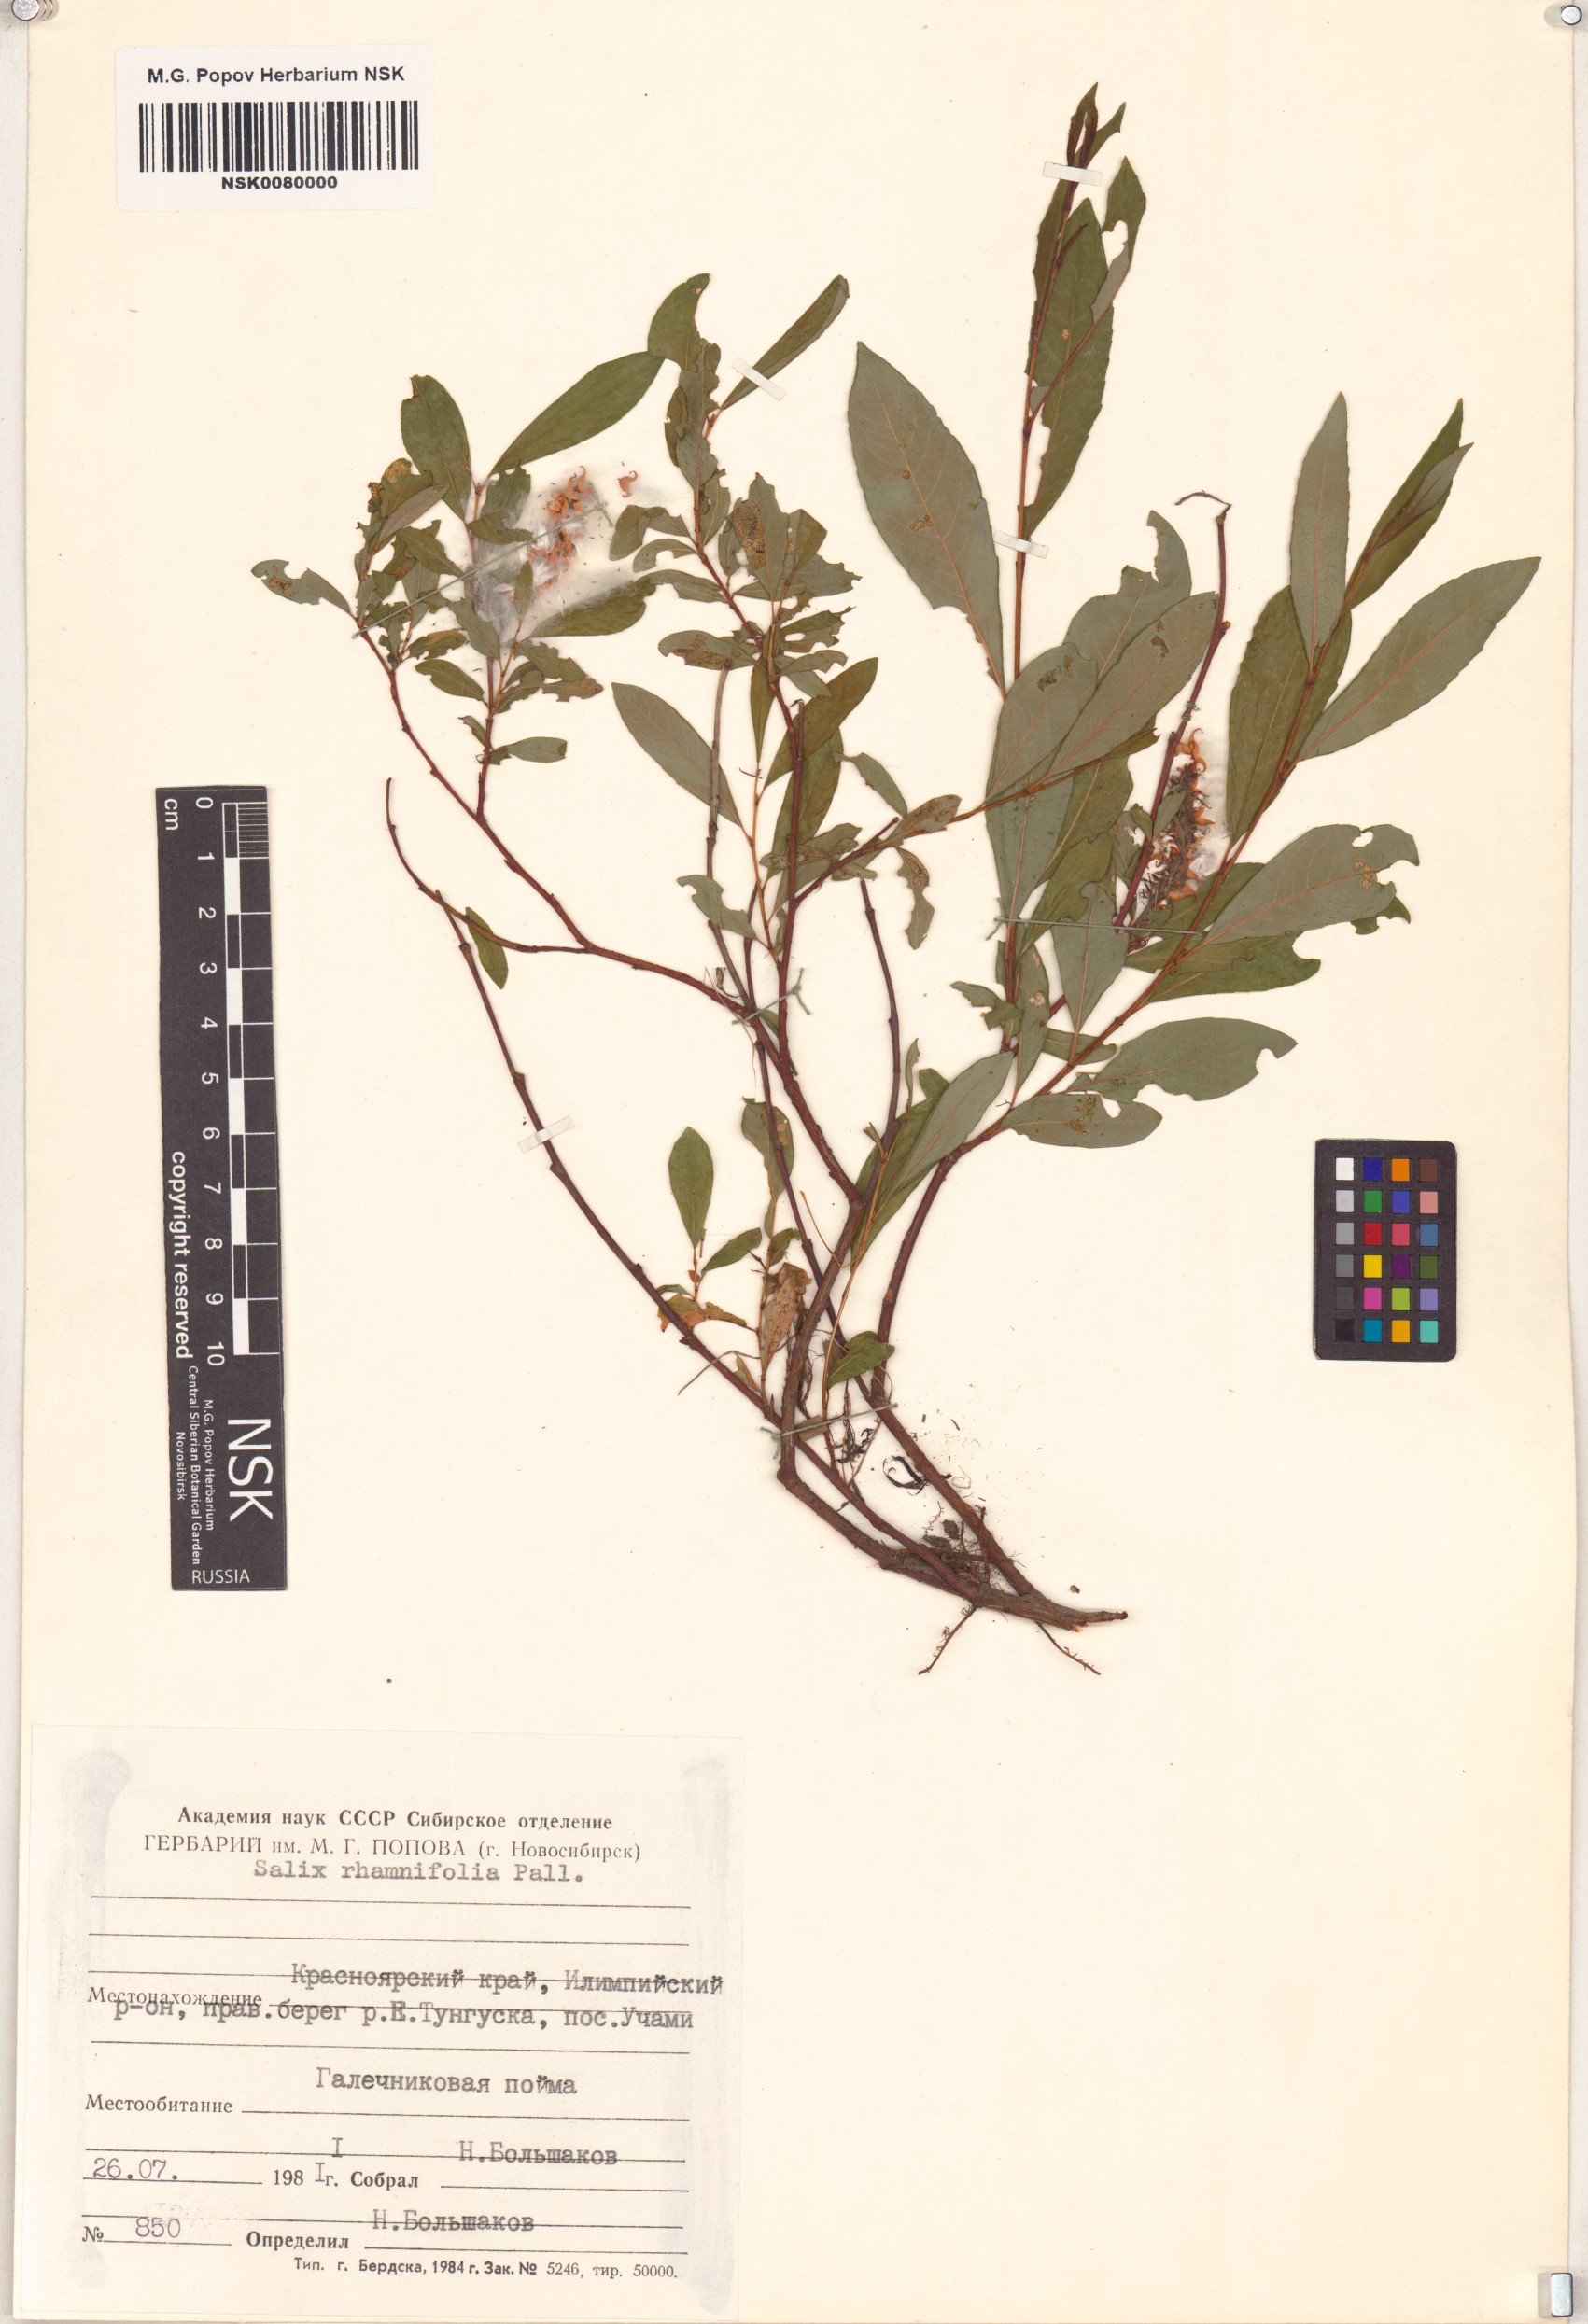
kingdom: Plantae
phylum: Tracheophyta
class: Magnoliopsida
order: Malpighiales
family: Salicaceae
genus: Salix
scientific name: Salix rhamnifolia
